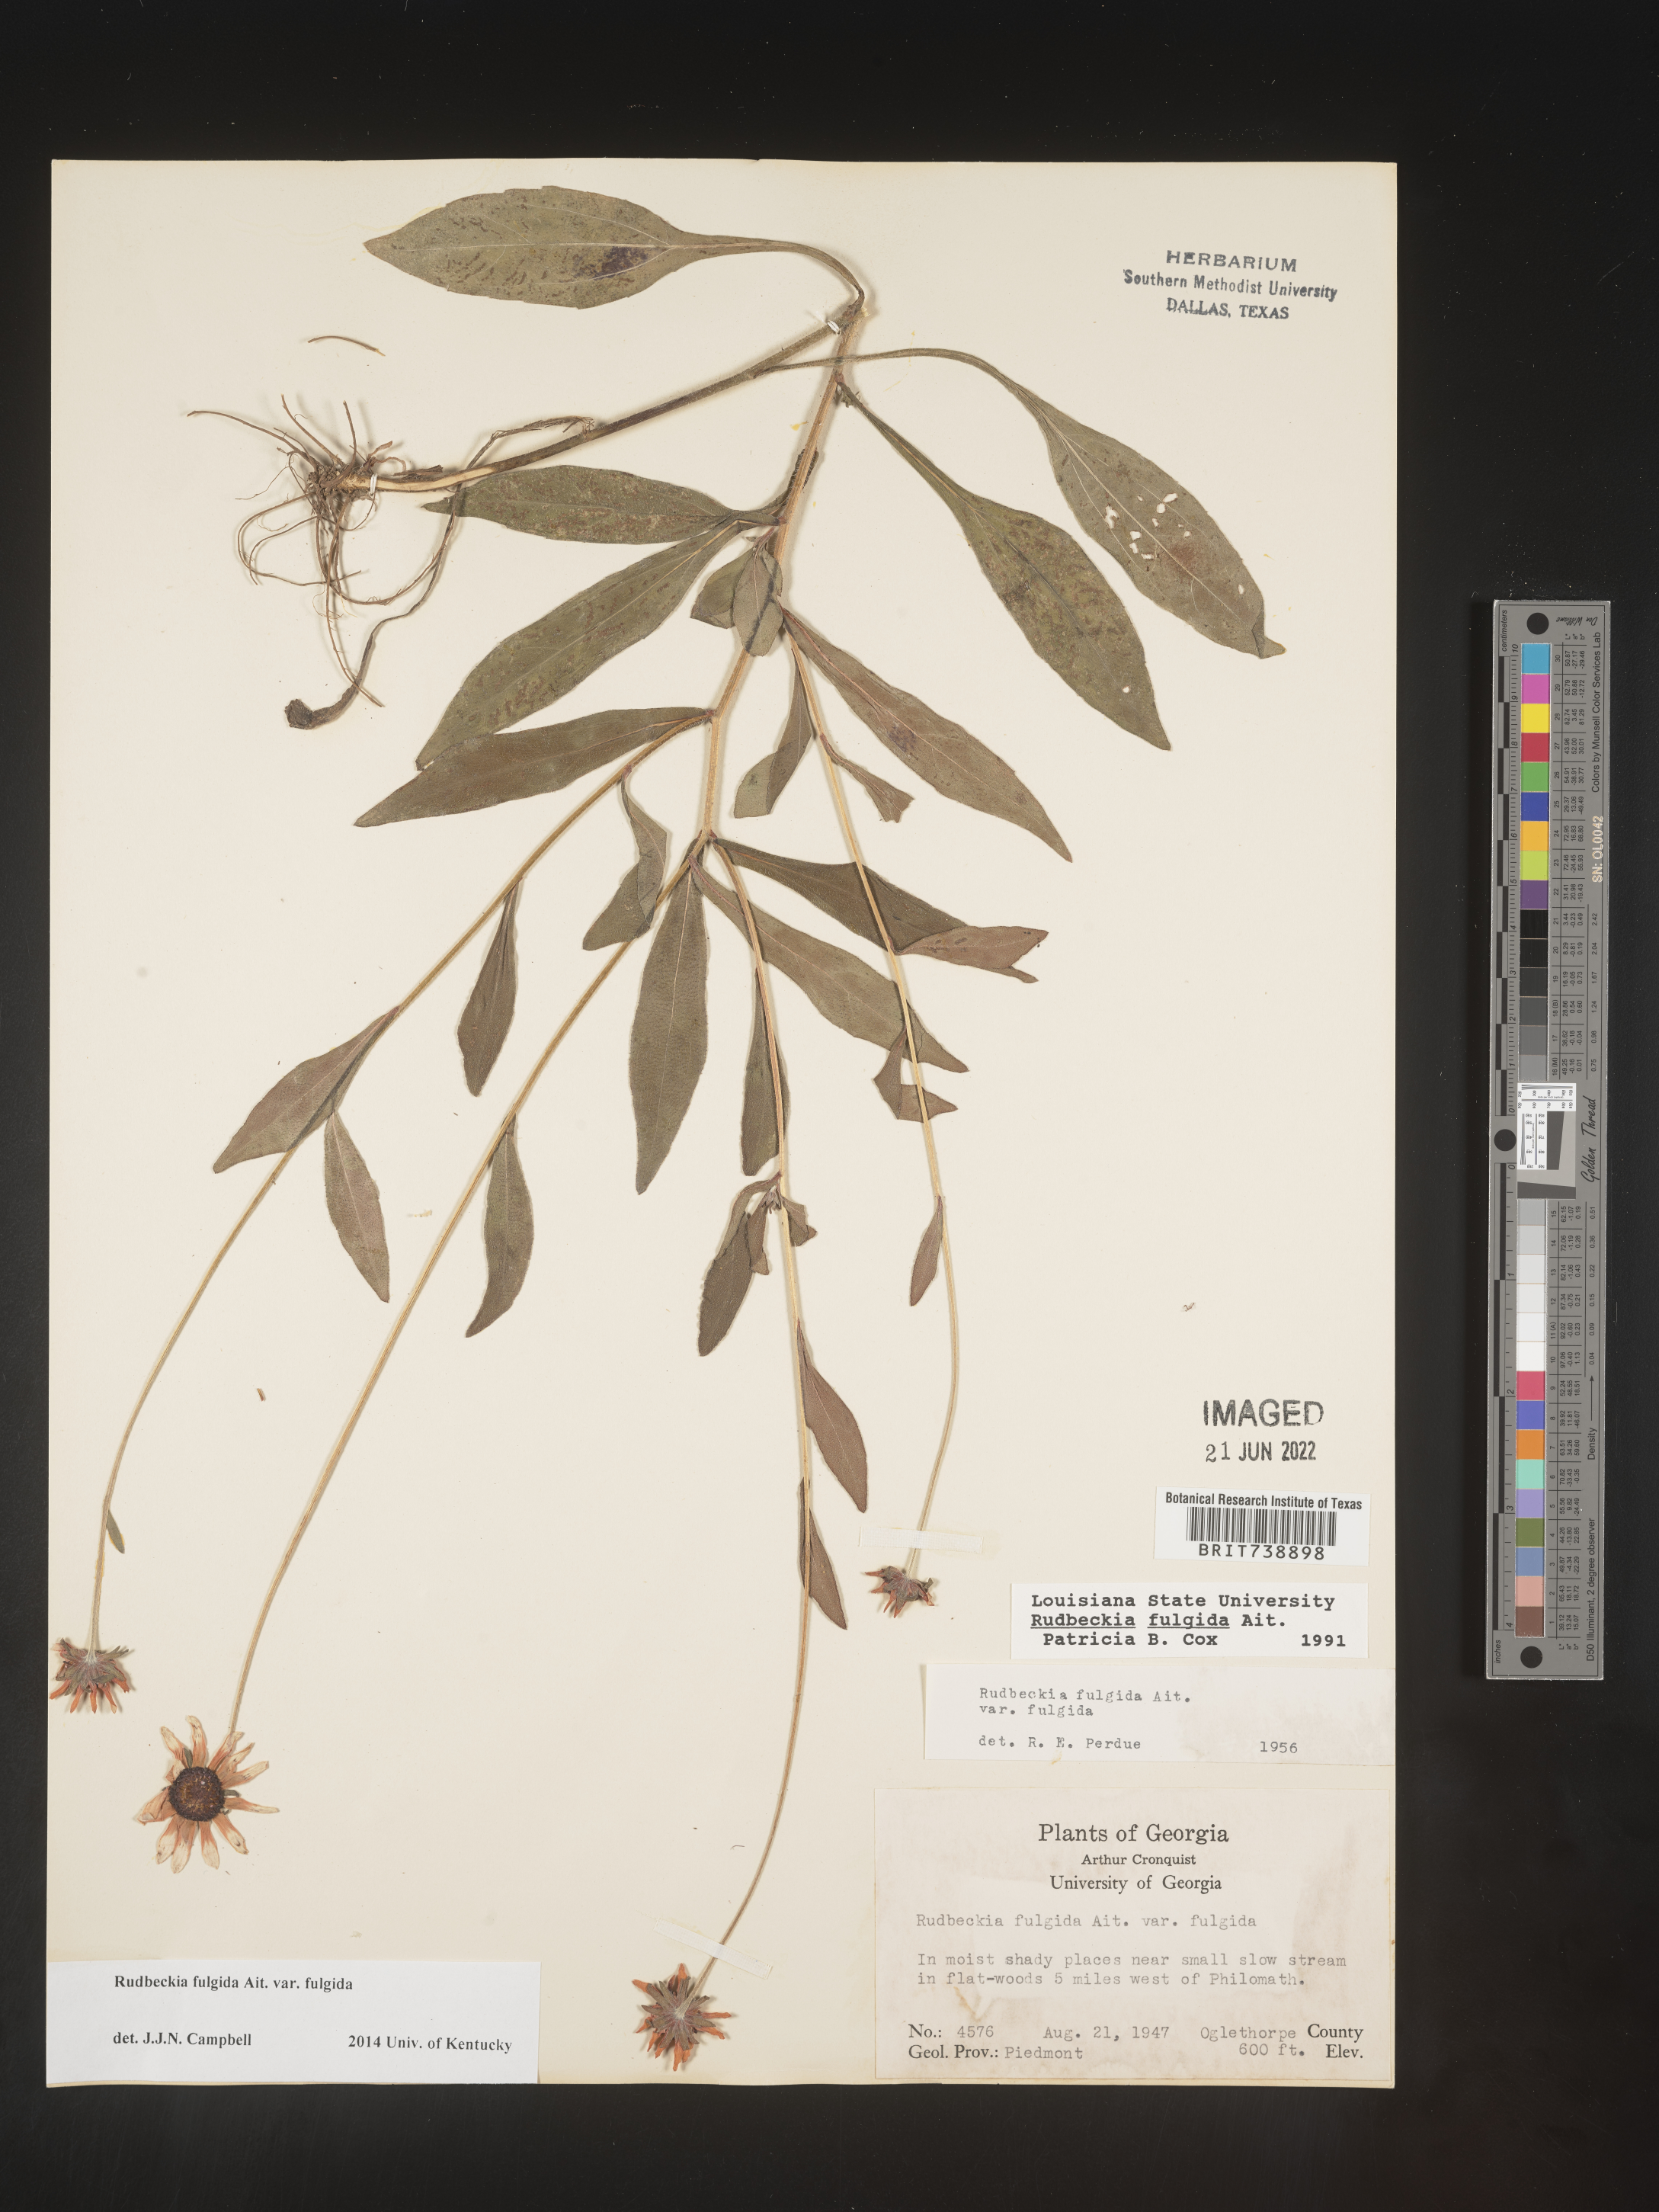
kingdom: Plantae
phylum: Tracheophyta
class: Magnoliopsida
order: Asterales
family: Asteraceae
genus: Rudbeckia
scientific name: Rudbeckia fulgida
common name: Perennial coneflower
